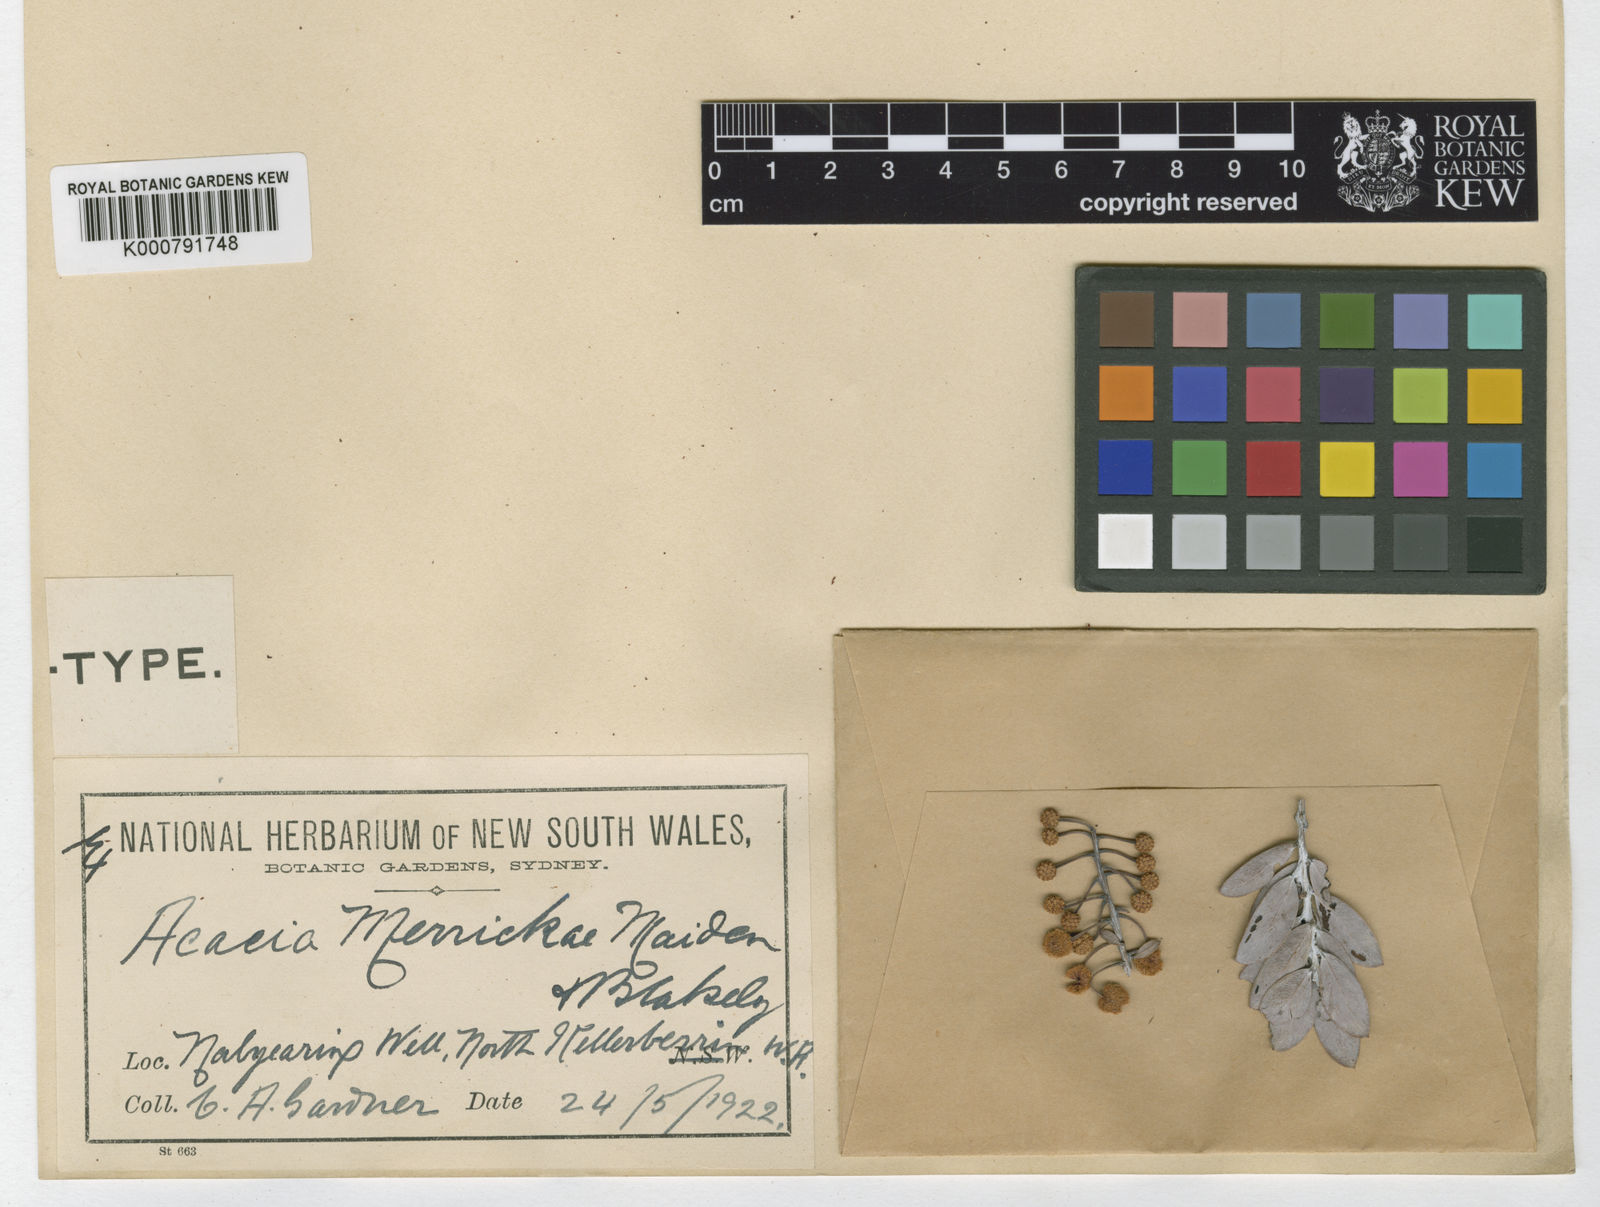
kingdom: Plantae
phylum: Tracheophyta
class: Magnoliopsida
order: Fabales
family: Fabaceae
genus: Acacia
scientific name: Acacia merrickiae
